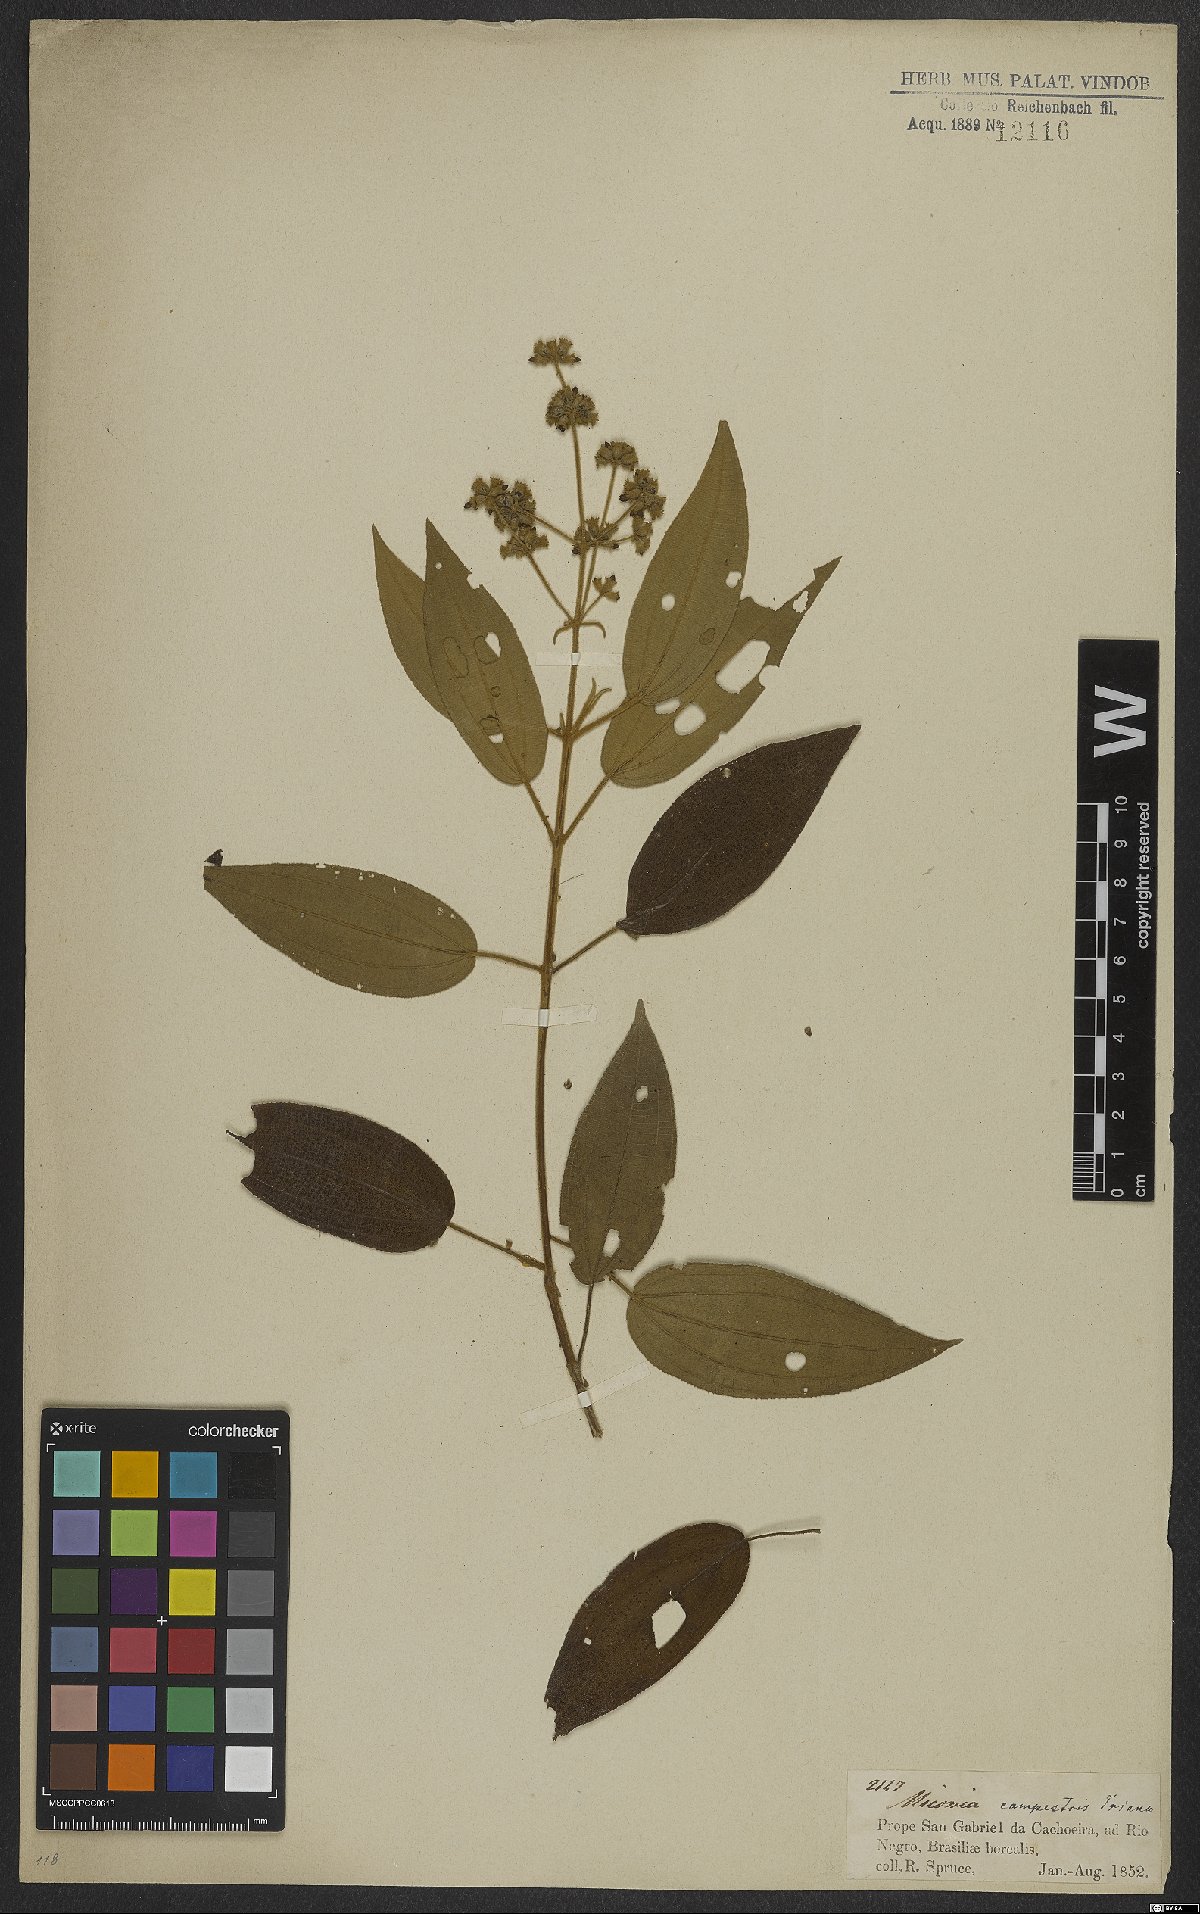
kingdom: Plantae
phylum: Tracheophyta
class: Magnoliopsida
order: Myrtales
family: Melastomataceae
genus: Miconia
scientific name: Miconia campestris
